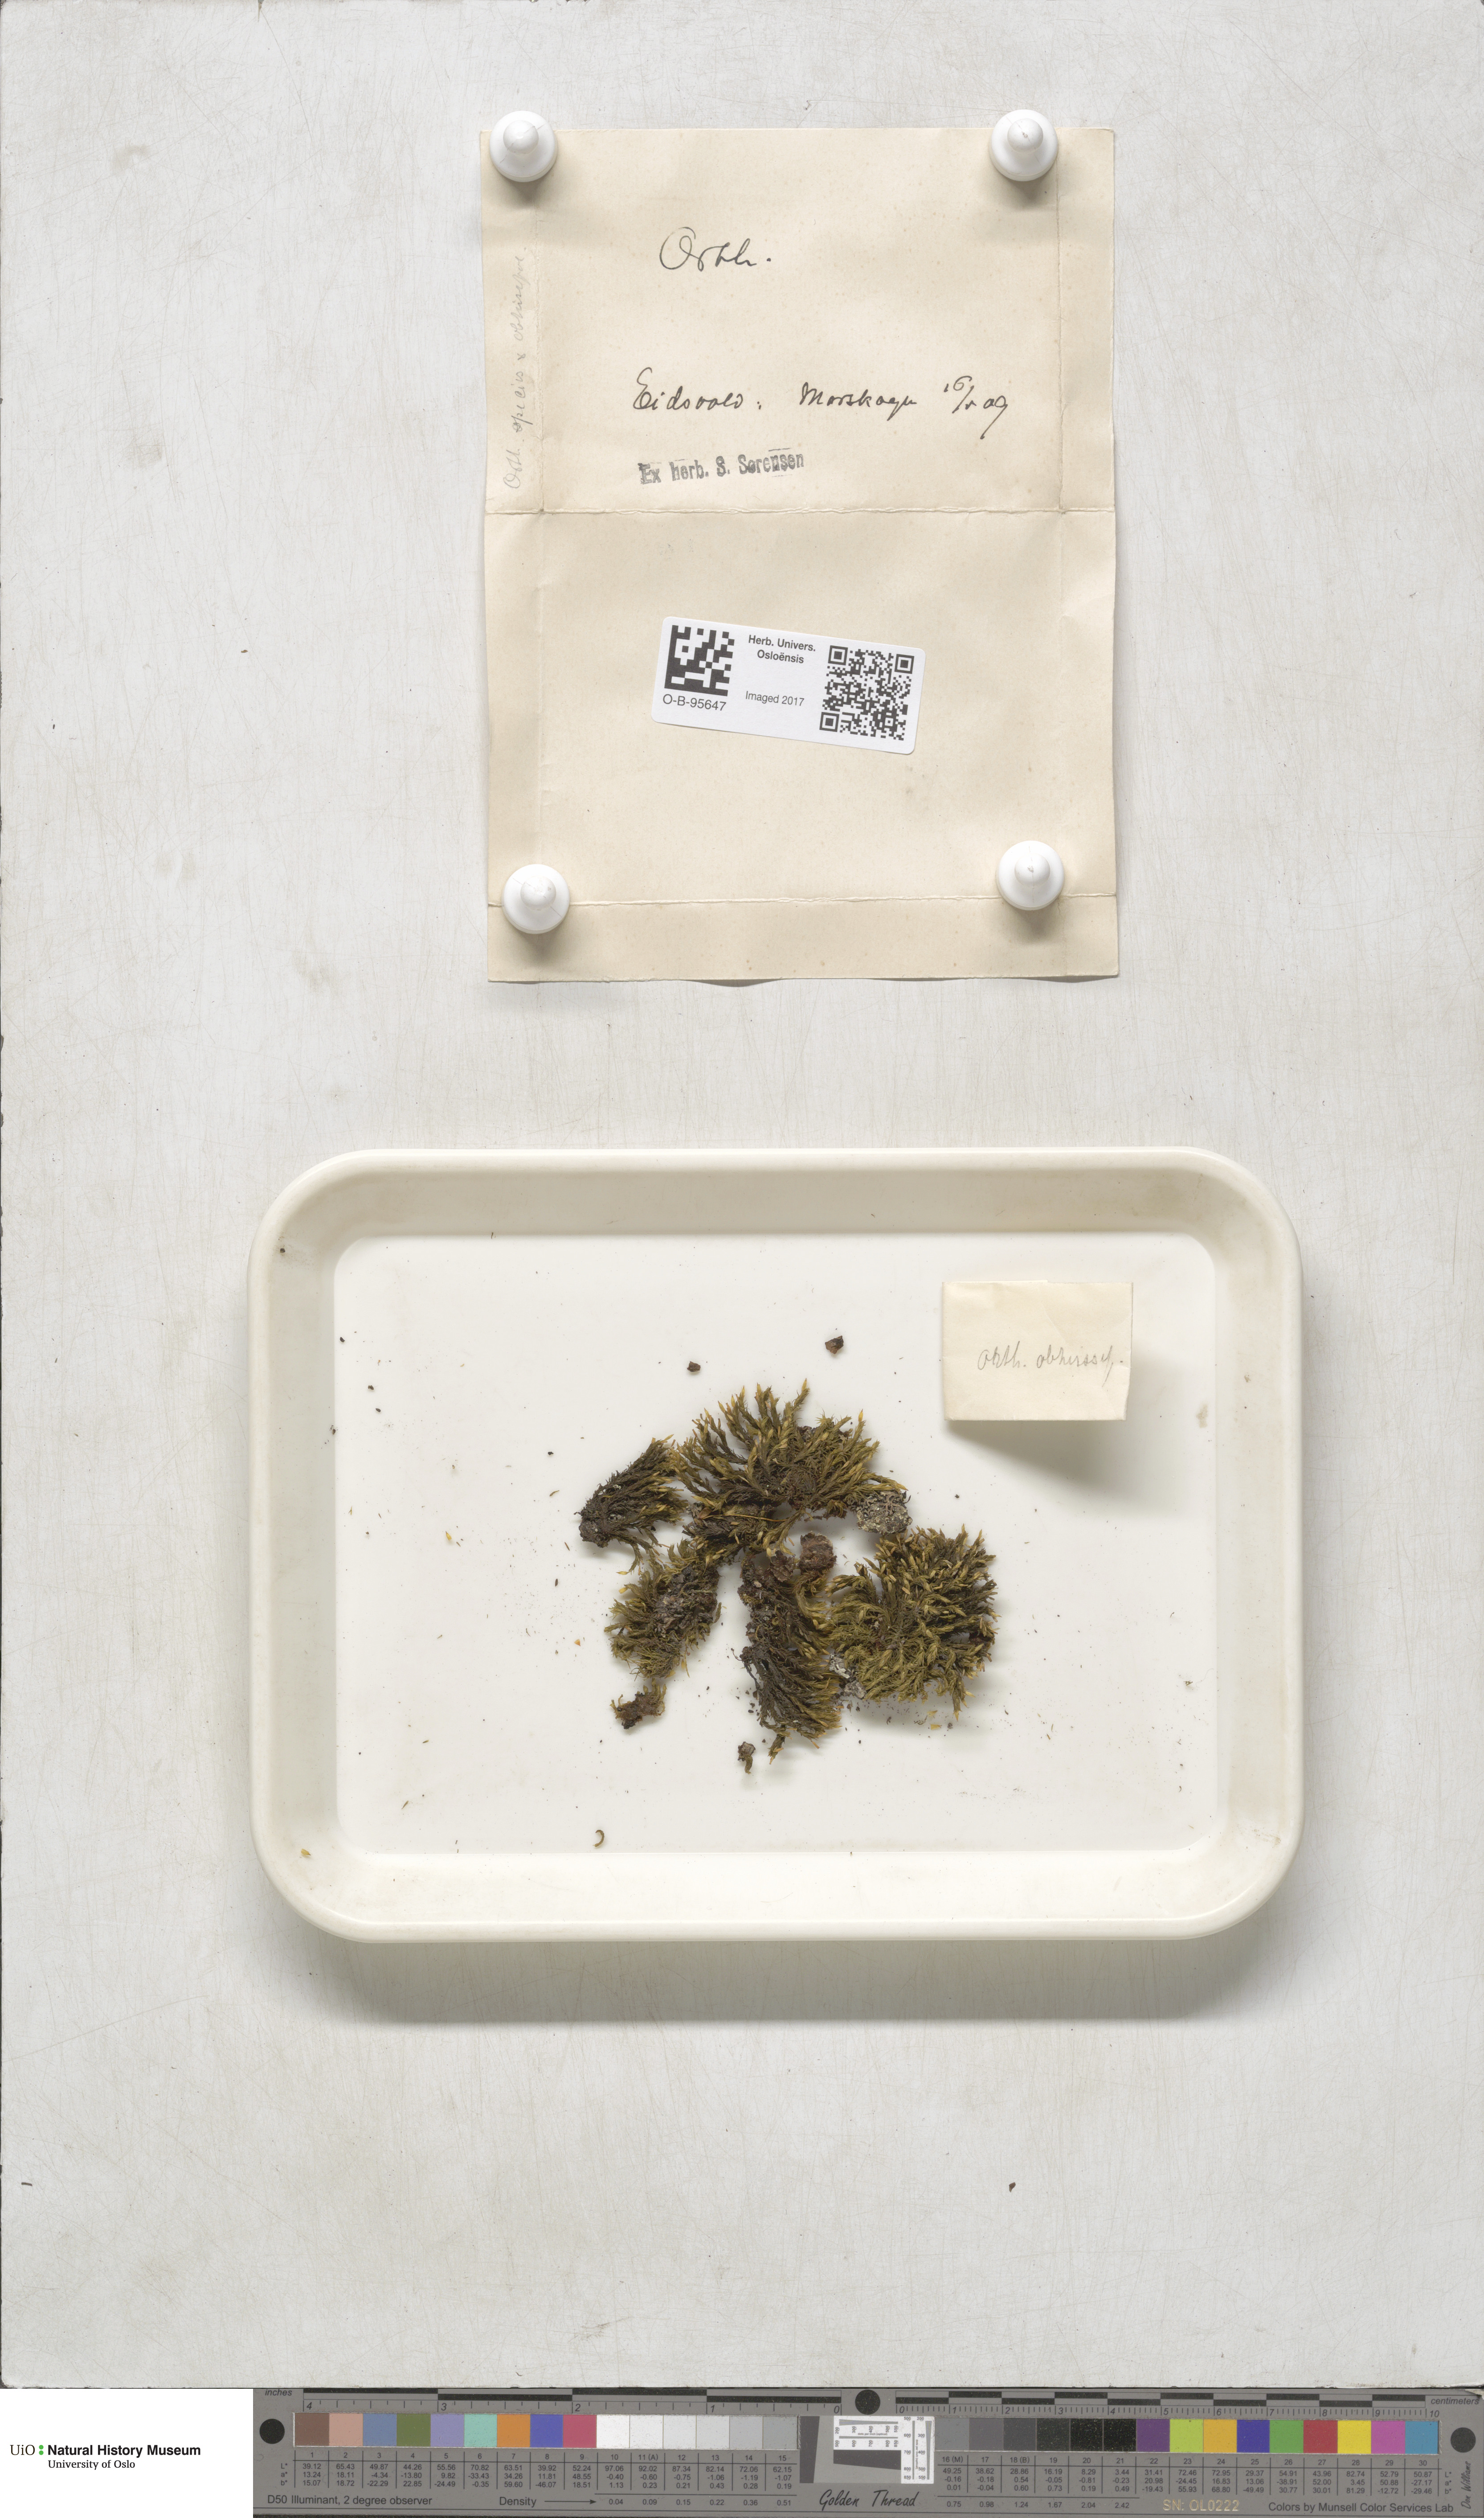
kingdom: Plantae
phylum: Bryophyta
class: Bryopsida
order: Orthotrichales
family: Orthotrichaceae
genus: Orthotrichum
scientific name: Orthotrichum
